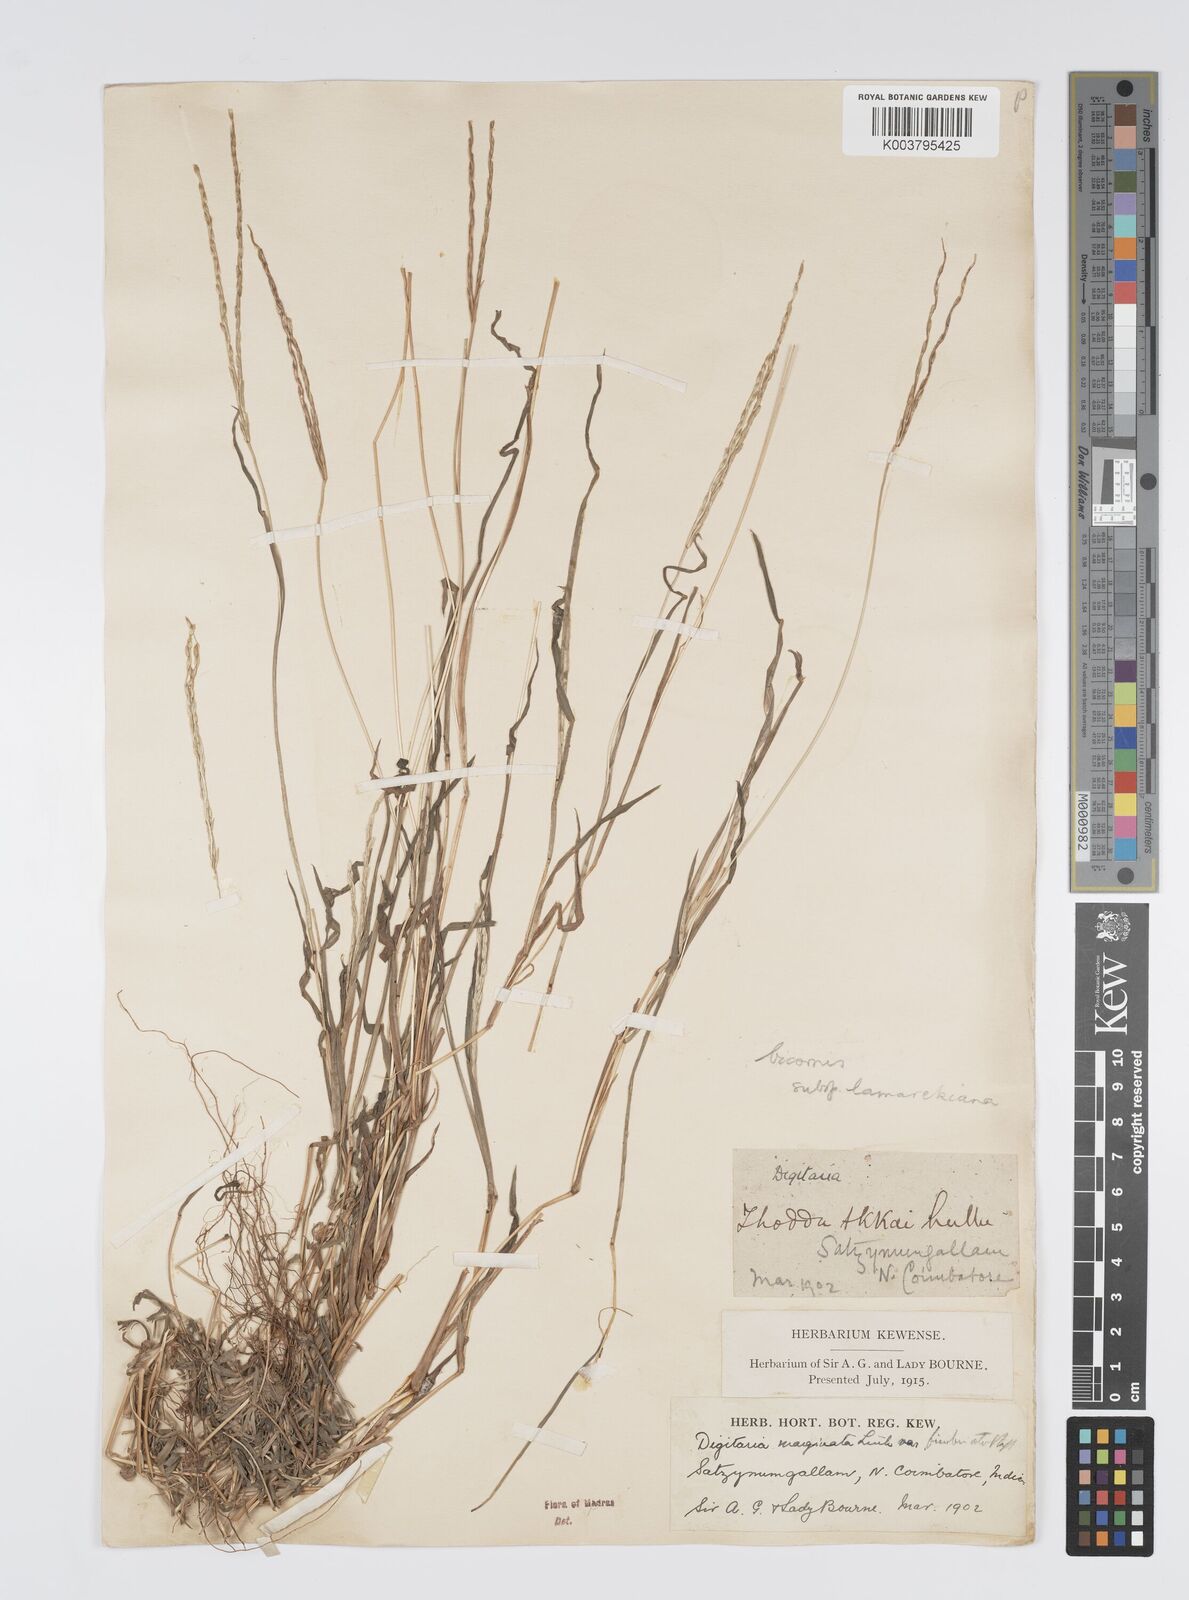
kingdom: Plantae
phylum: Tracheophyta
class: Liliopsida
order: Poales
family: Poaceae
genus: Digitaria
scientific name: Digitaria bicornis
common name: Asian crabgrass
